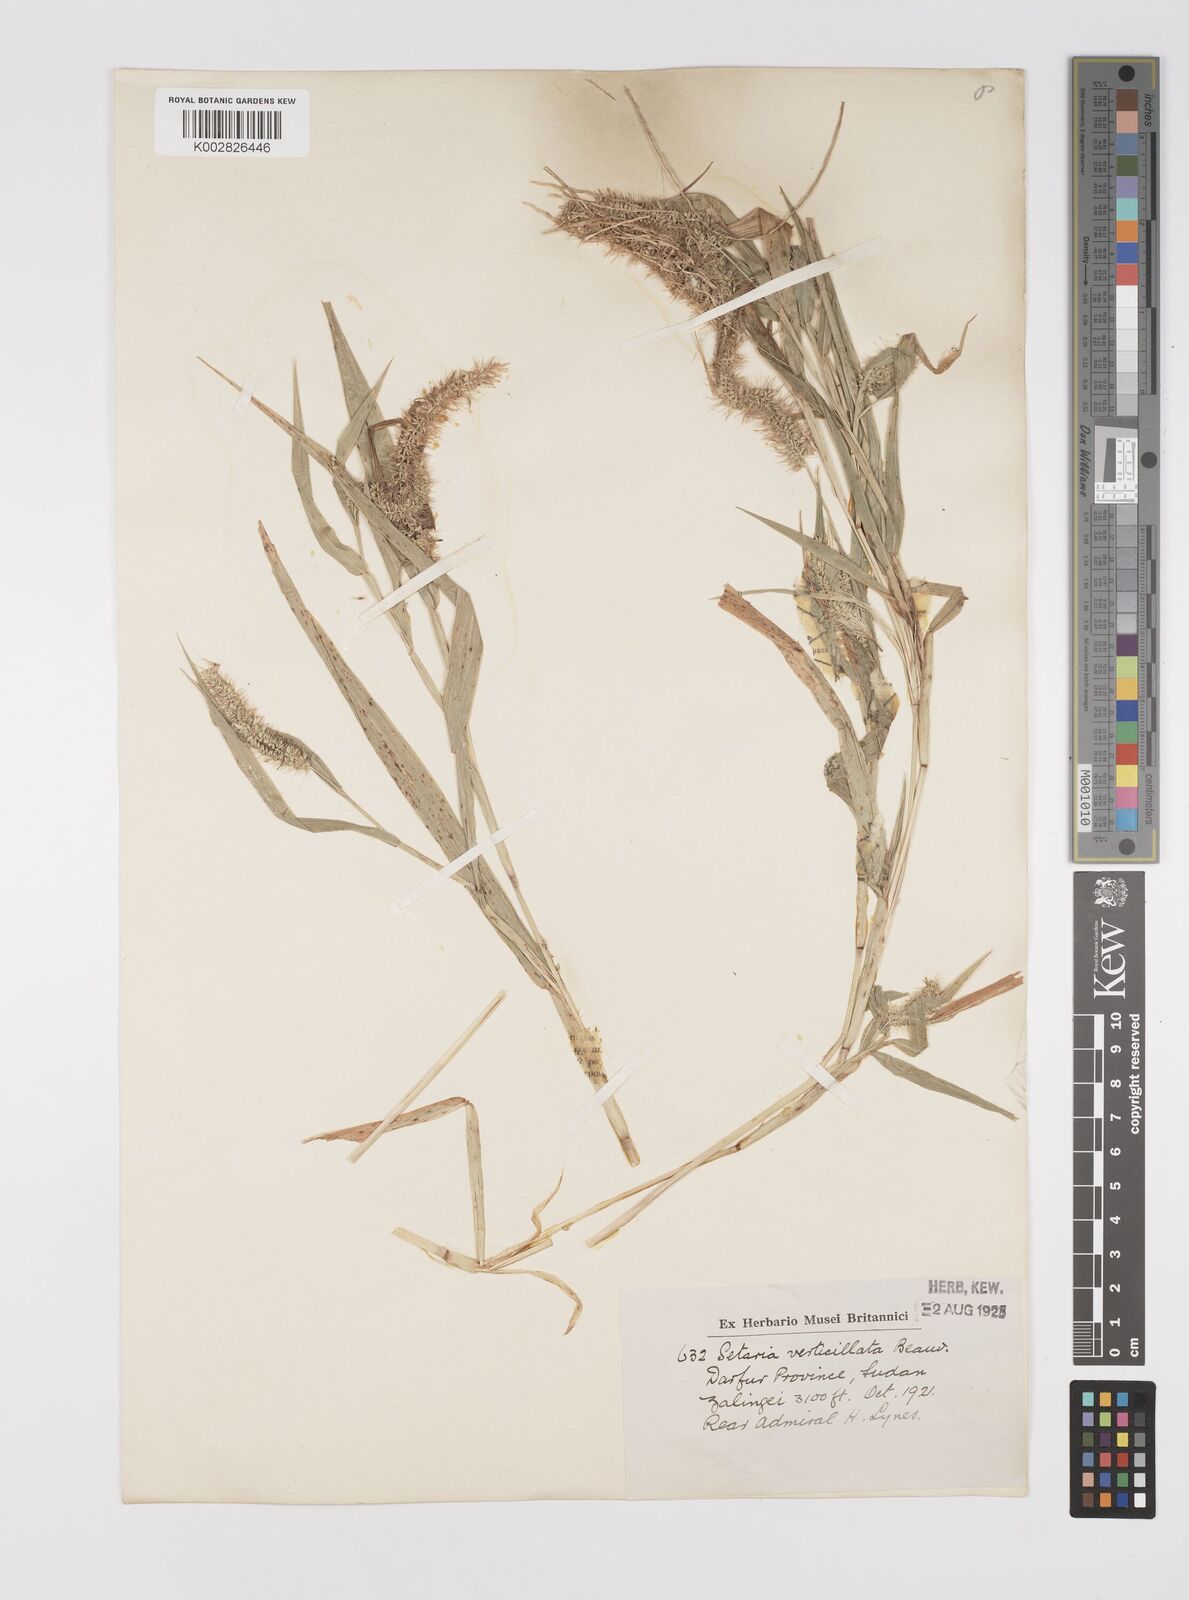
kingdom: Plantae
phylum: Tracheophyta
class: Liliopsida
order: Poales
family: Poaceae
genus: Setaria
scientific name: Setaria verticillata
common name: Hooked bristlegrass
